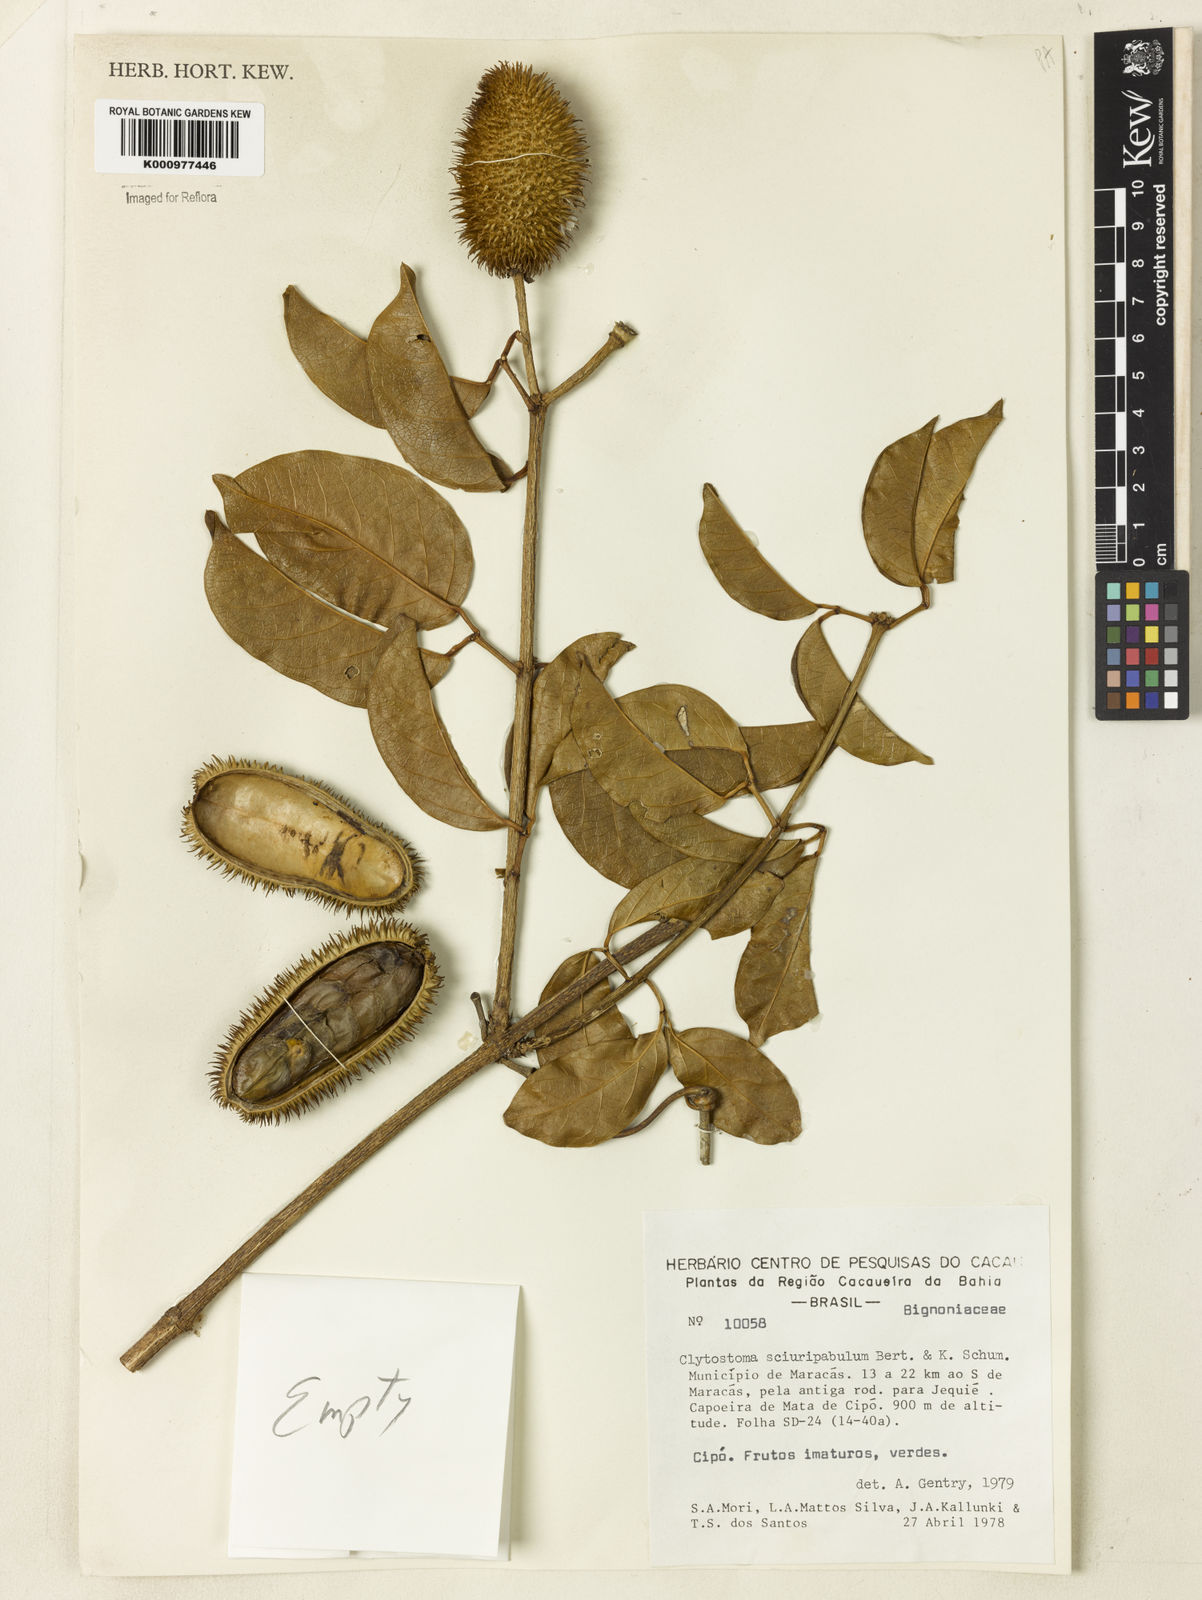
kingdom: Plantae
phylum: Tracheophyta
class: Magnoliopsida
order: Lamiales
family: Bignoniaceae
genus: Bignonia
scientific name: Bignonia
